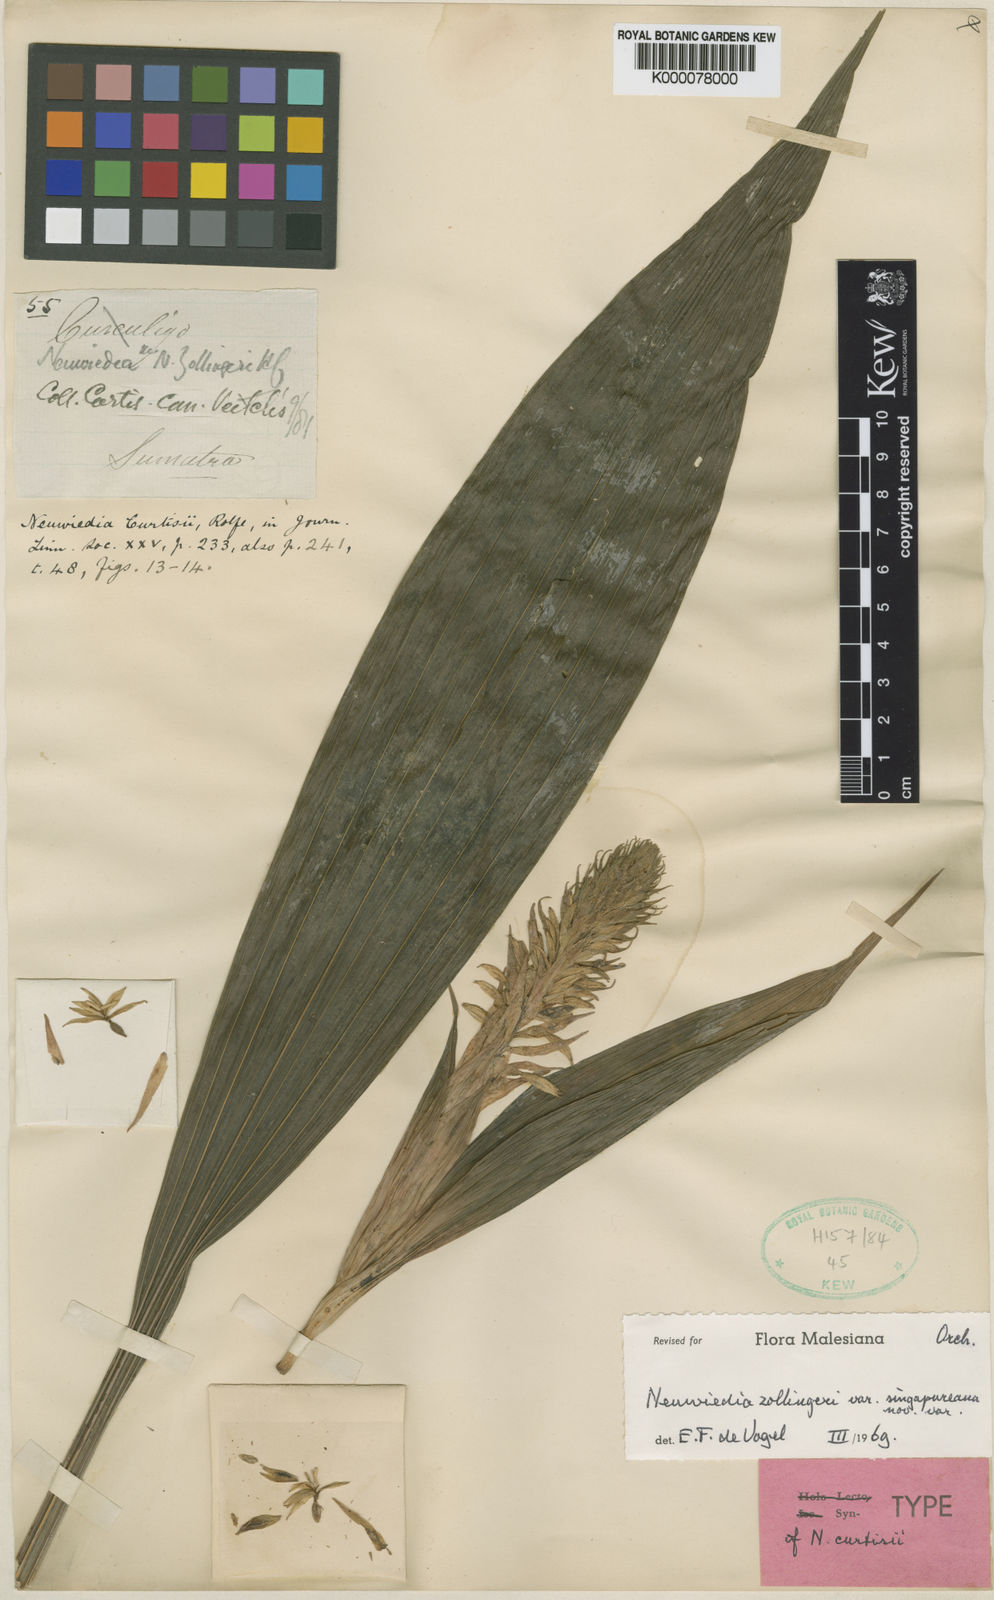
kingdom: Plantae
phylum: Tracheophyta
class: Liliopsida
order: Asparagales
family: Orchidaceae
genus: Neuwiedia
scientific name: Neuwiedia zollingeri
